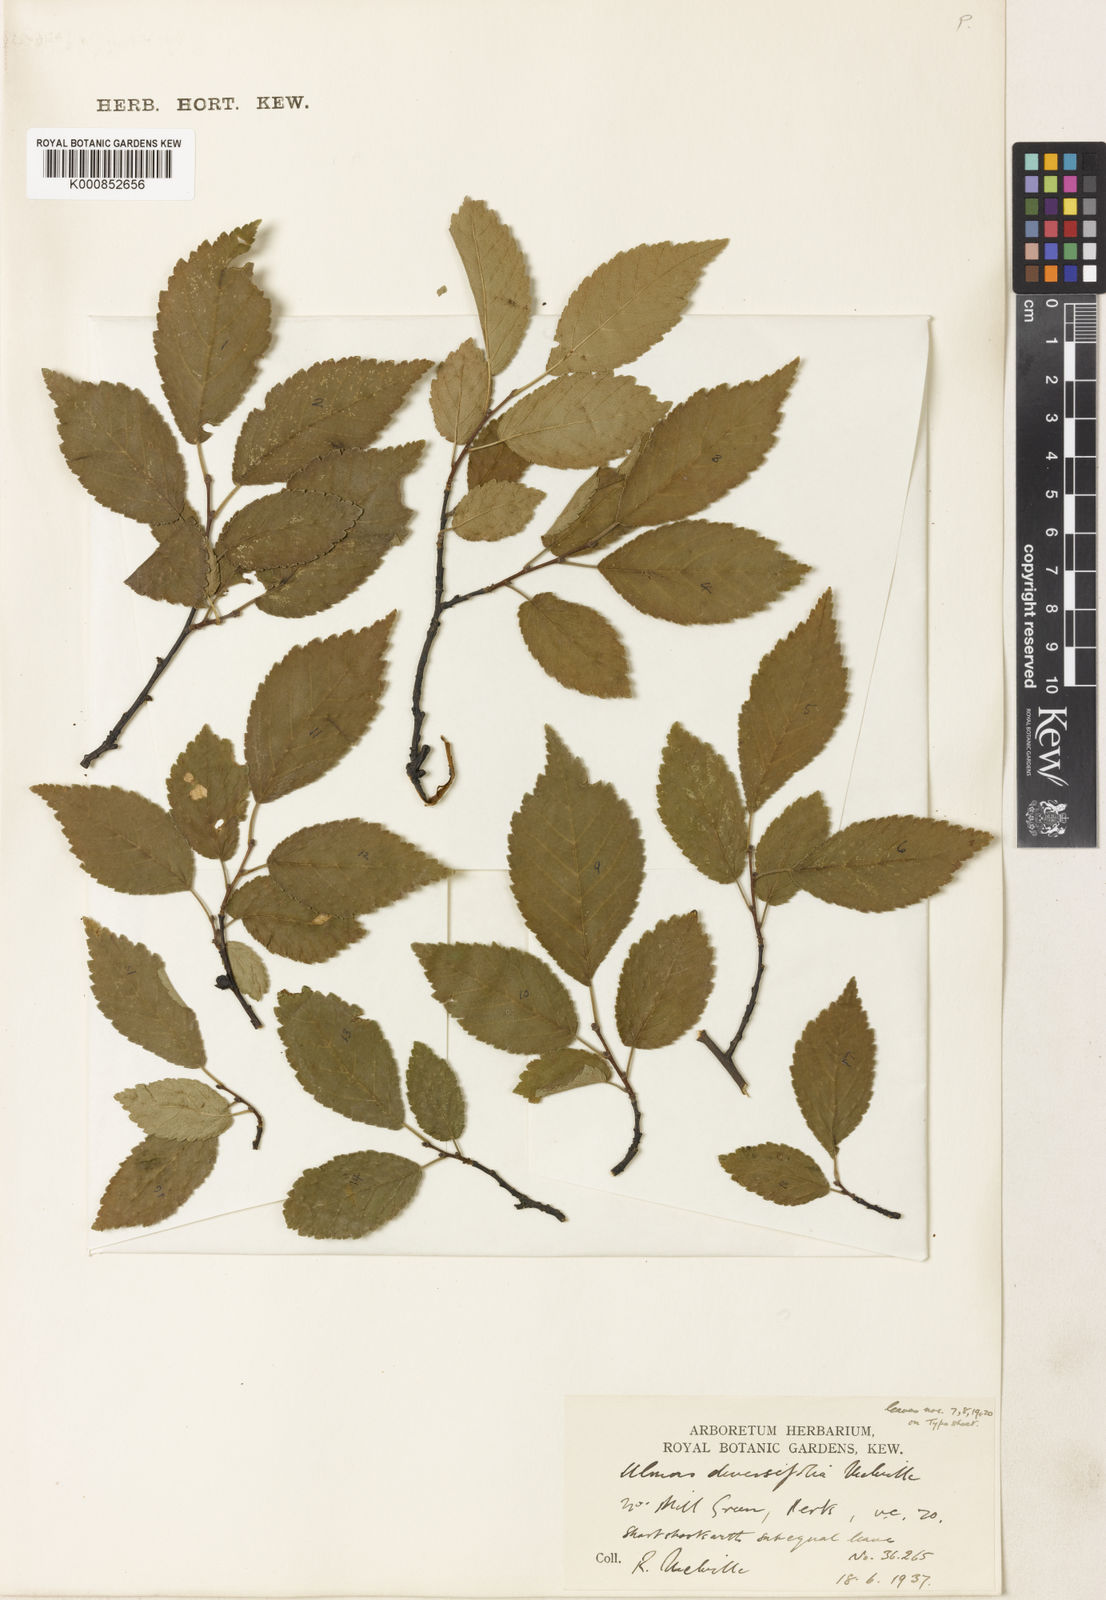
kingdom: Plantae
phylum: Tracheophyta
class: Magnoliopsida
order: Rosales
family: Ulmaceae
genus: Ulmus
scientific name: Ulmus minor
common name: Small-leaved elm
